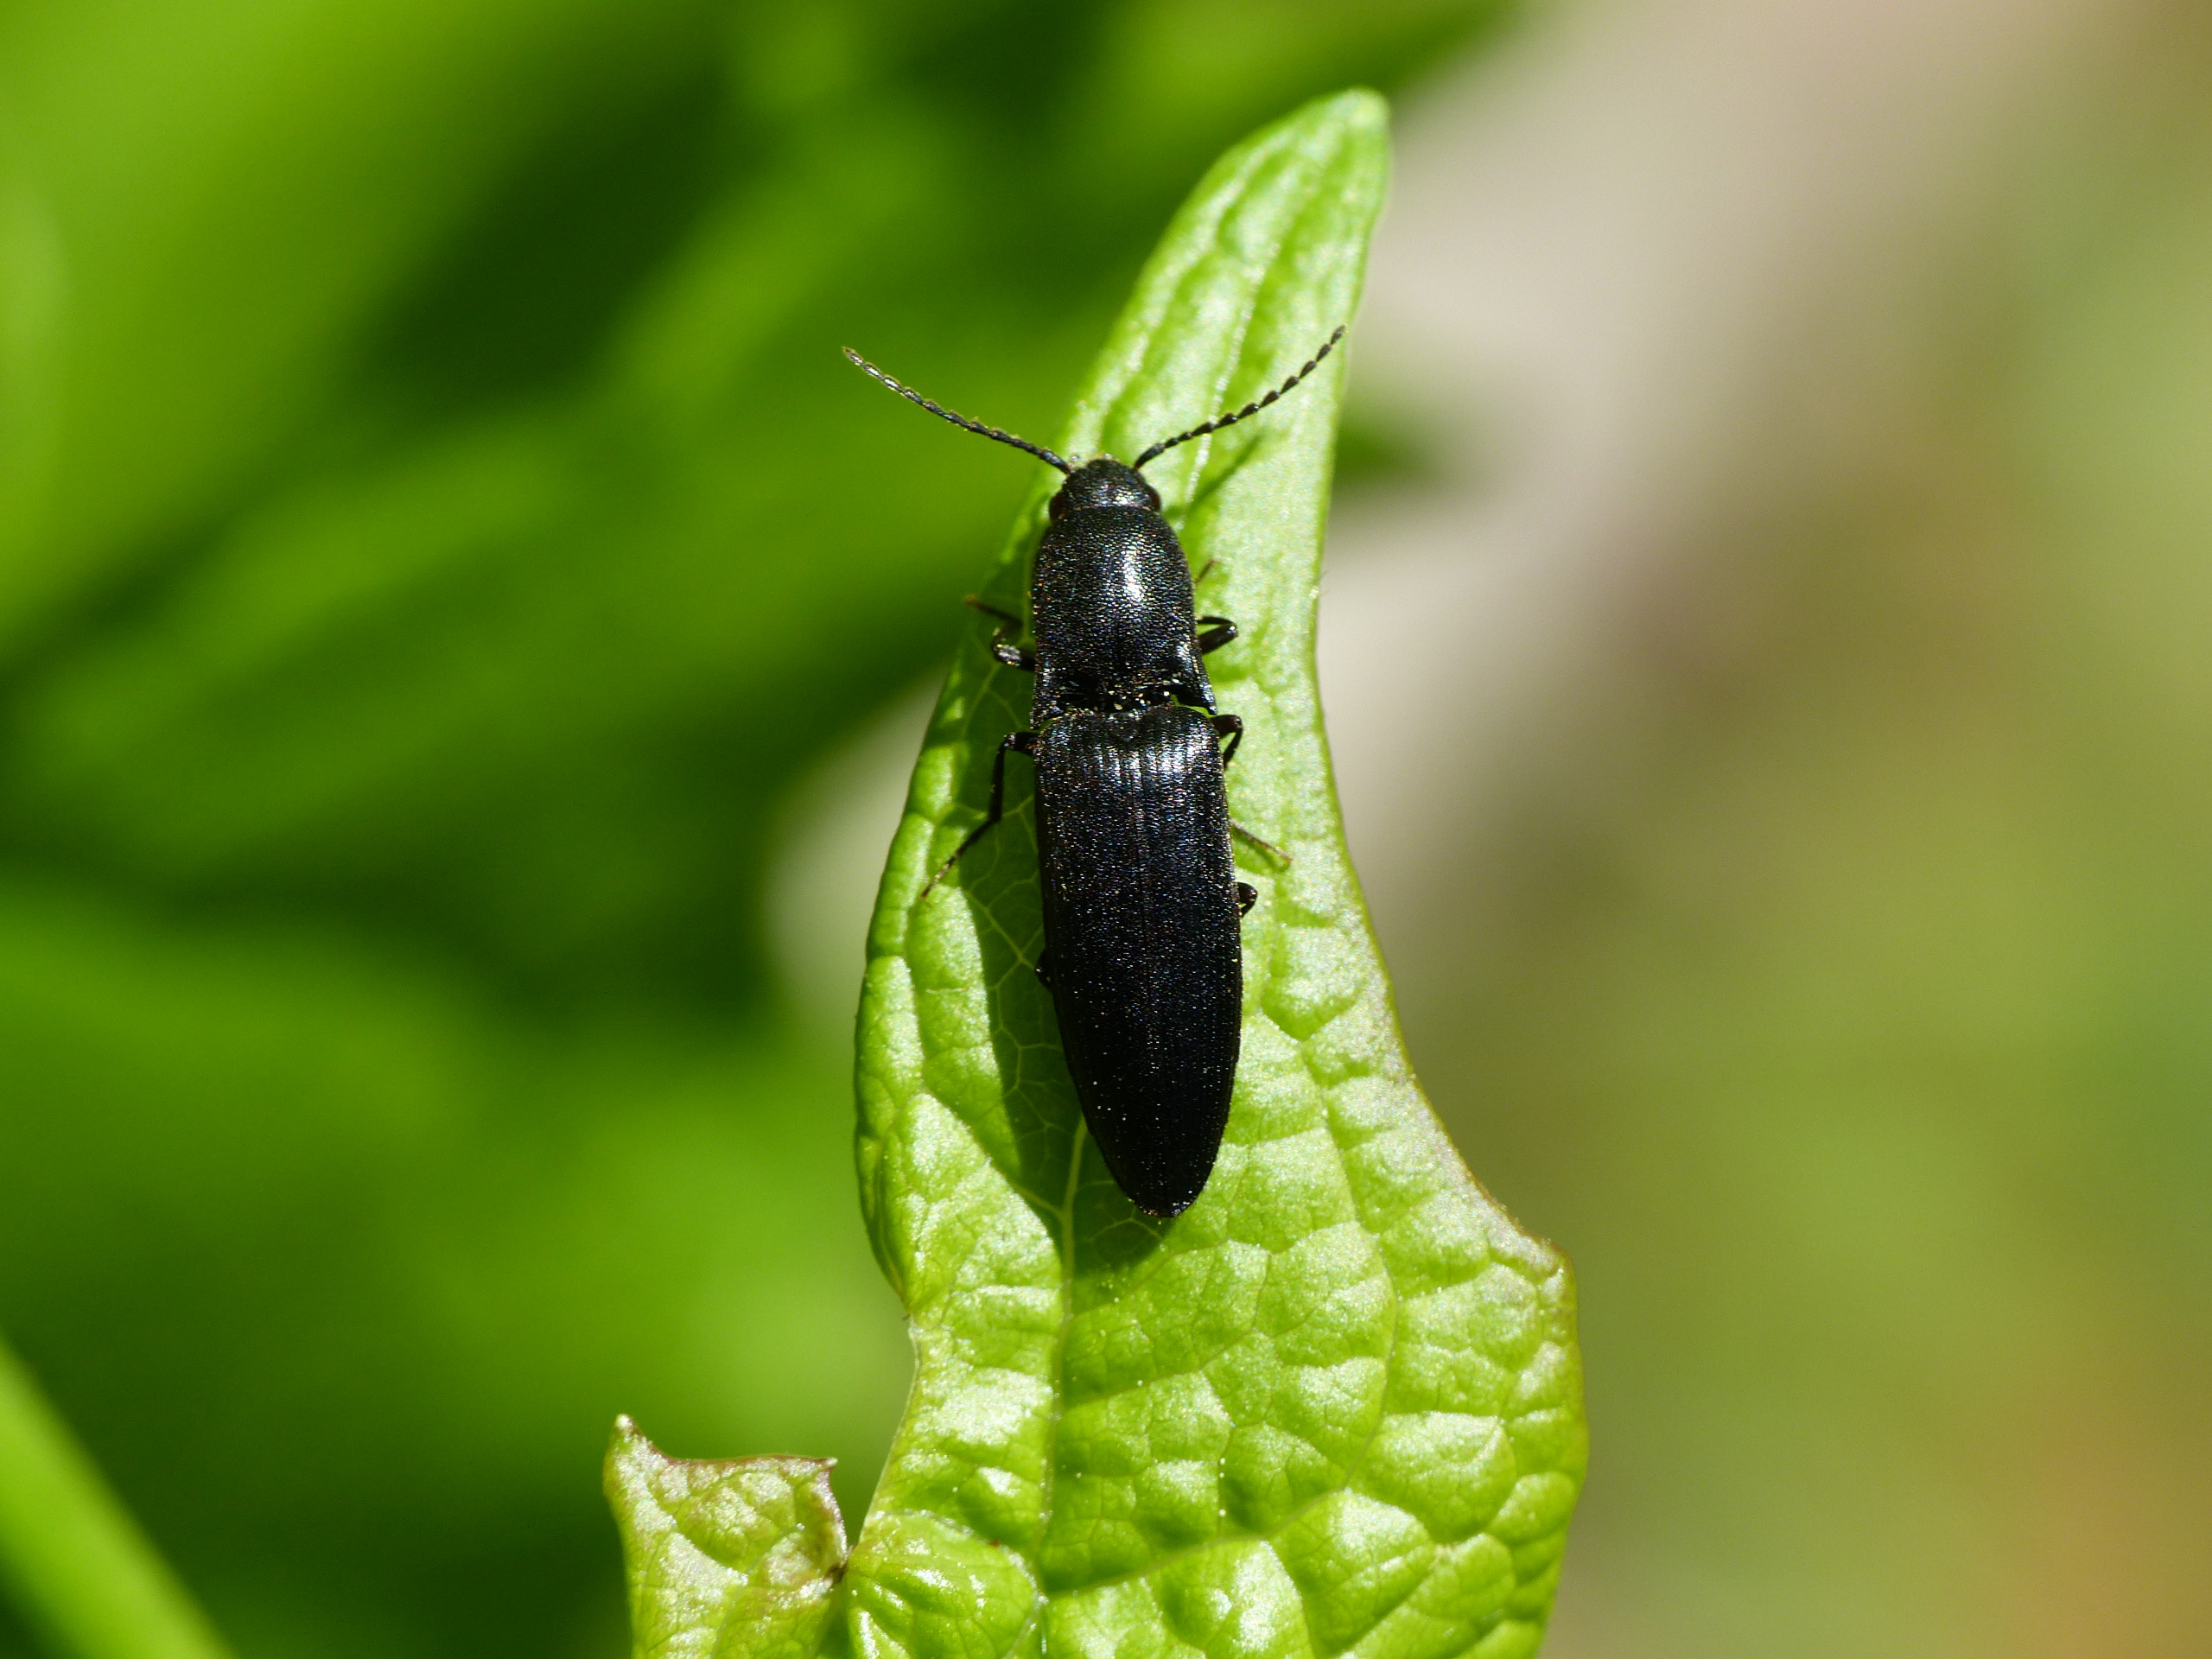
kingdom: Animalia
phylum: Arthropoda
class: Insecta
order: Coleoptera
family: Elateridae
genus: Ectinus
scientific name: Ectinus aterrimus
